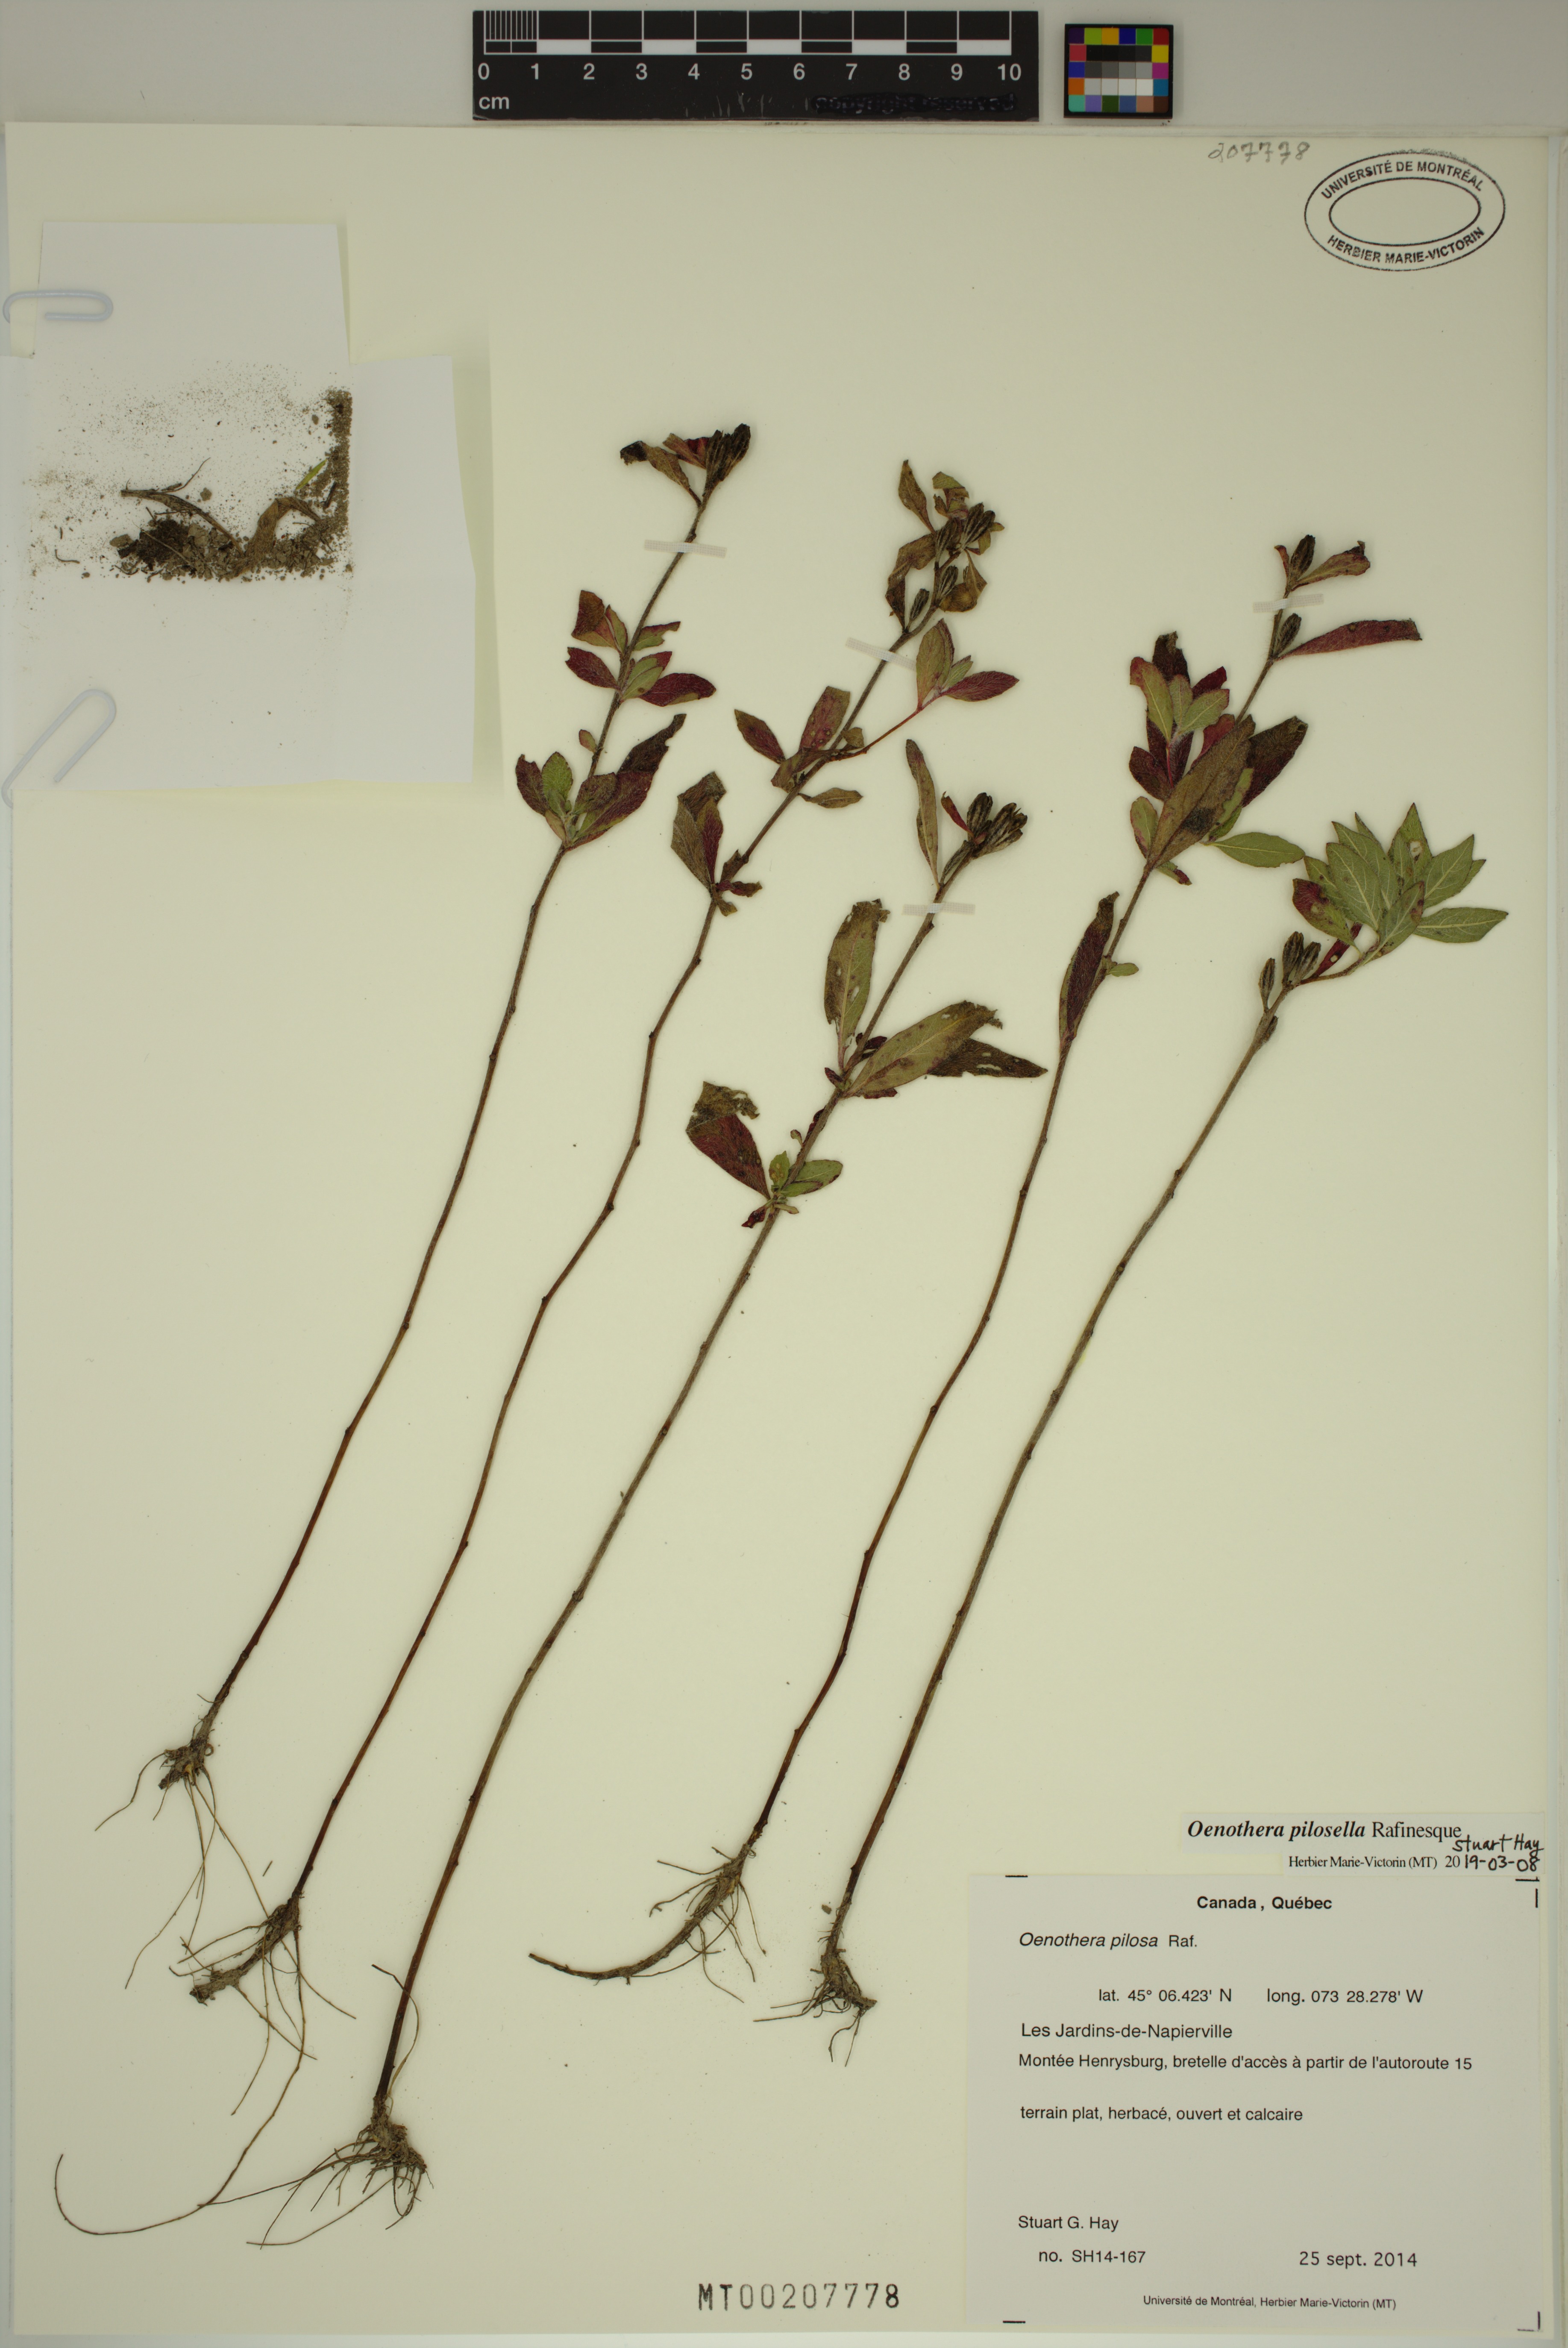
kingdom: Plantae
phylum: Tracheophyta
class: Magnoliopsida
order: Myrtales
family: Onagraceae
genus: Oenothera
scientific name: Oenothera pilosella
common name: Finely-pilose evening-primrose
